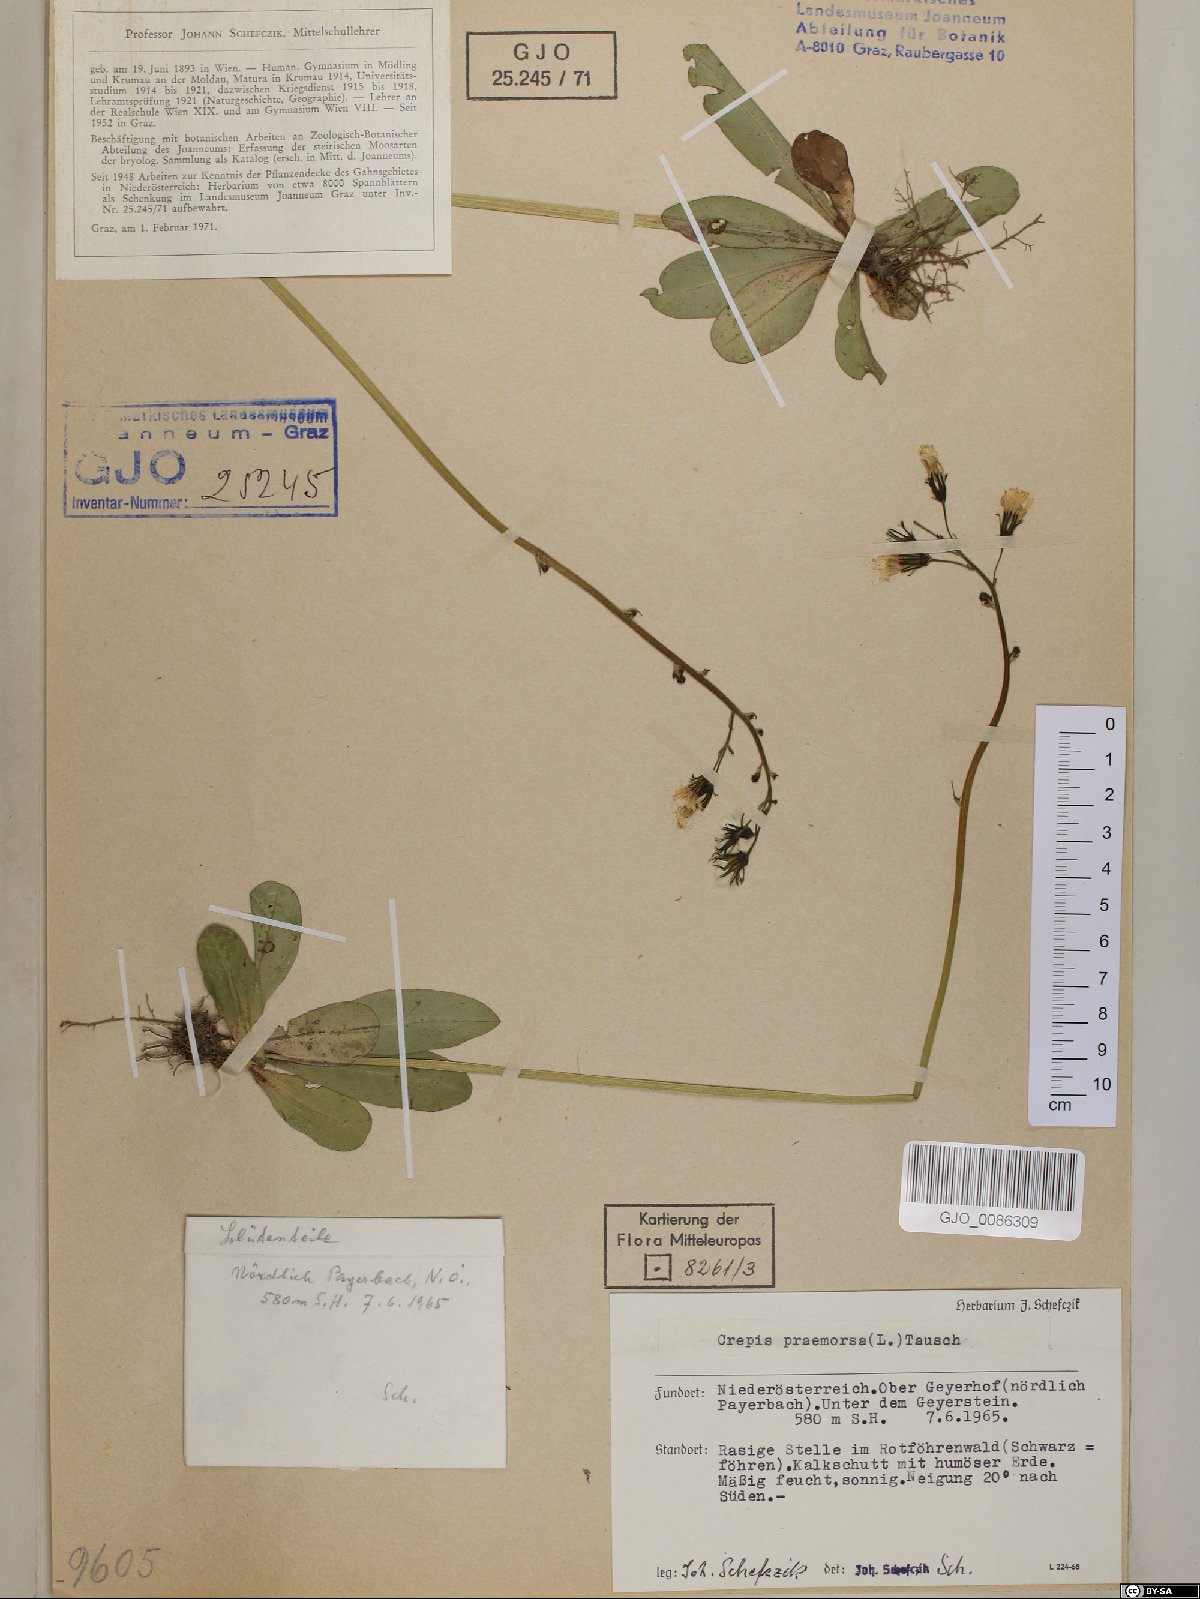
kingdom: Plantae
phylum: Tracheophyta
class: Magnoliopsida
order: Asterales
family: Asteraceae
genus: Crepis
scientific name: Crepis praemorsa
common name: Leafless hawk's-beard
